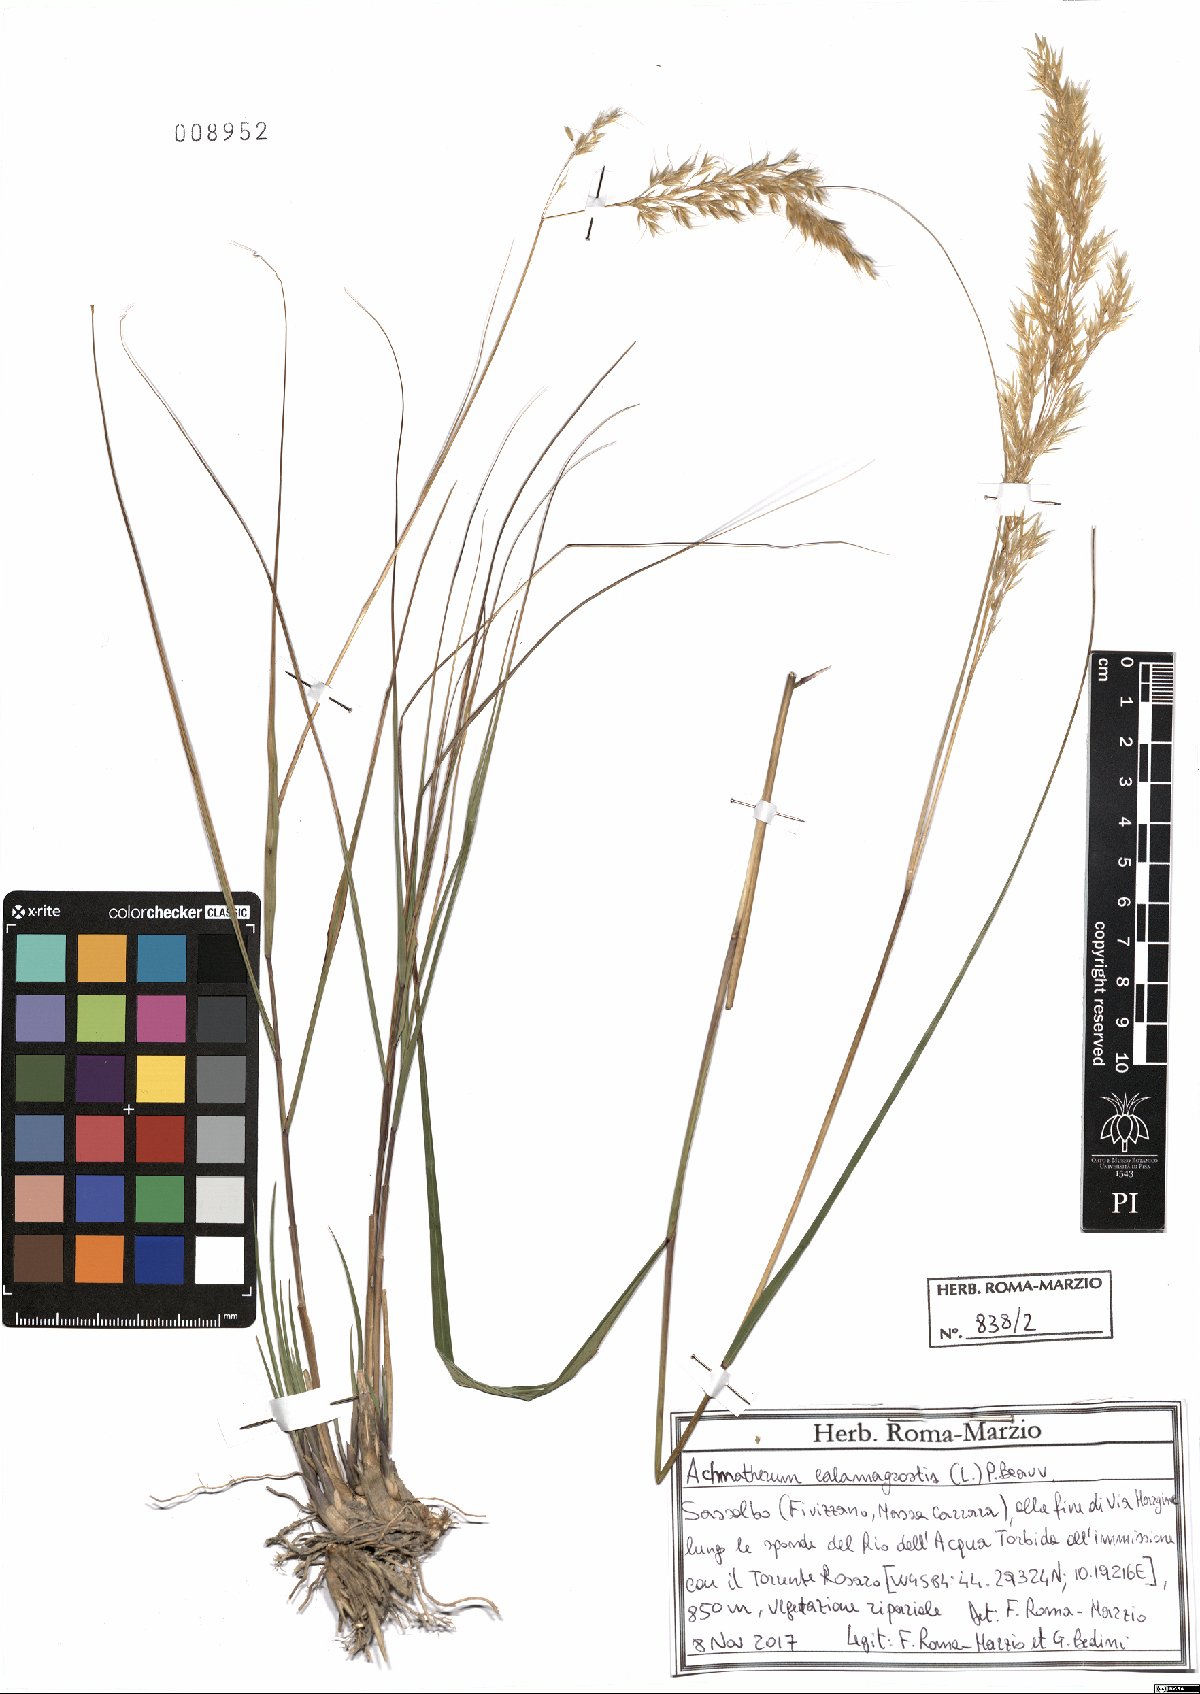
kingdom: Plantae
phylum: Tracheophyta
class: Liliopsida
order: Poales
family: Poaceae
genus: Achnatherum
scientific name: Achnatherum calamagrostis
